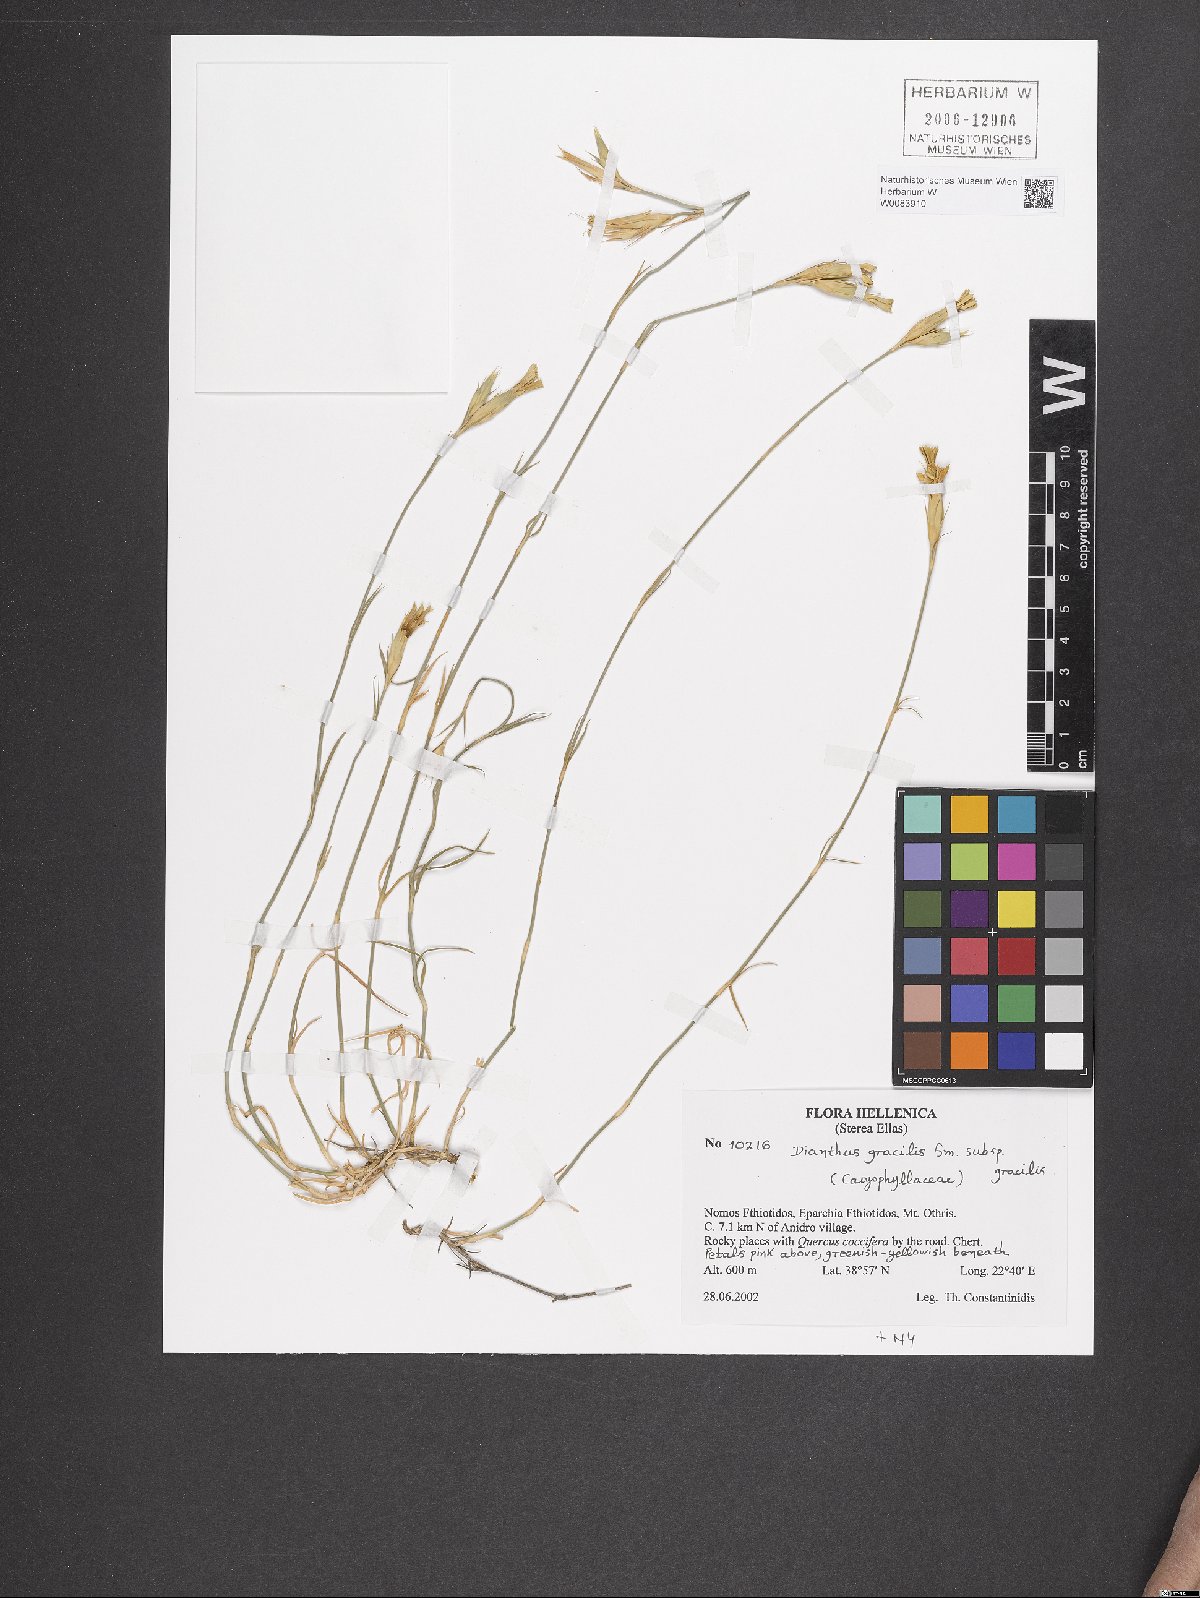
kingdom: Plantae
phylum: Tracheophyta
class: Magnoliopsida
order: Caryophyllales
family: Caryophyllaceae
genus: Dianthus
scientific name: Dianthus gracilis
